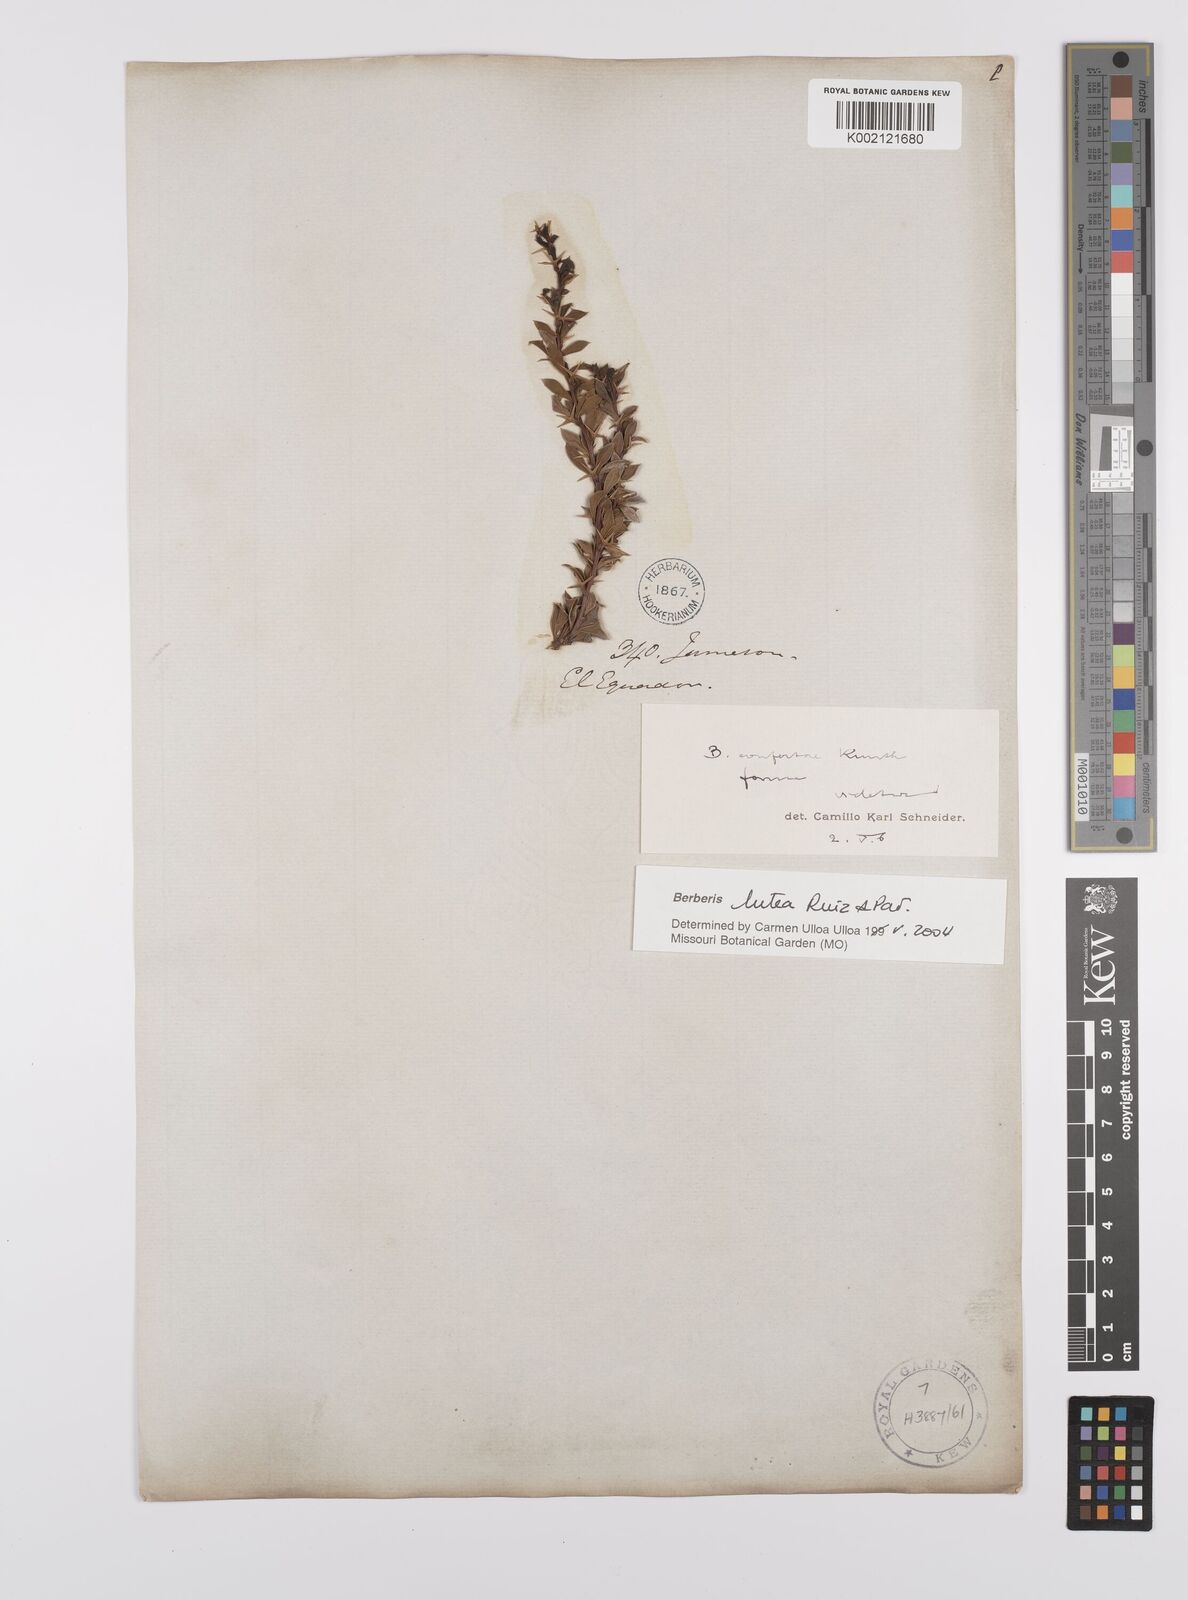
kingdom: Plantae
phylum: Tracheophyta
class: Magnoliopsida
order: Ranunculales
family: Berberidaceae
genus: Berberis
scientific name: Berberis lutea
